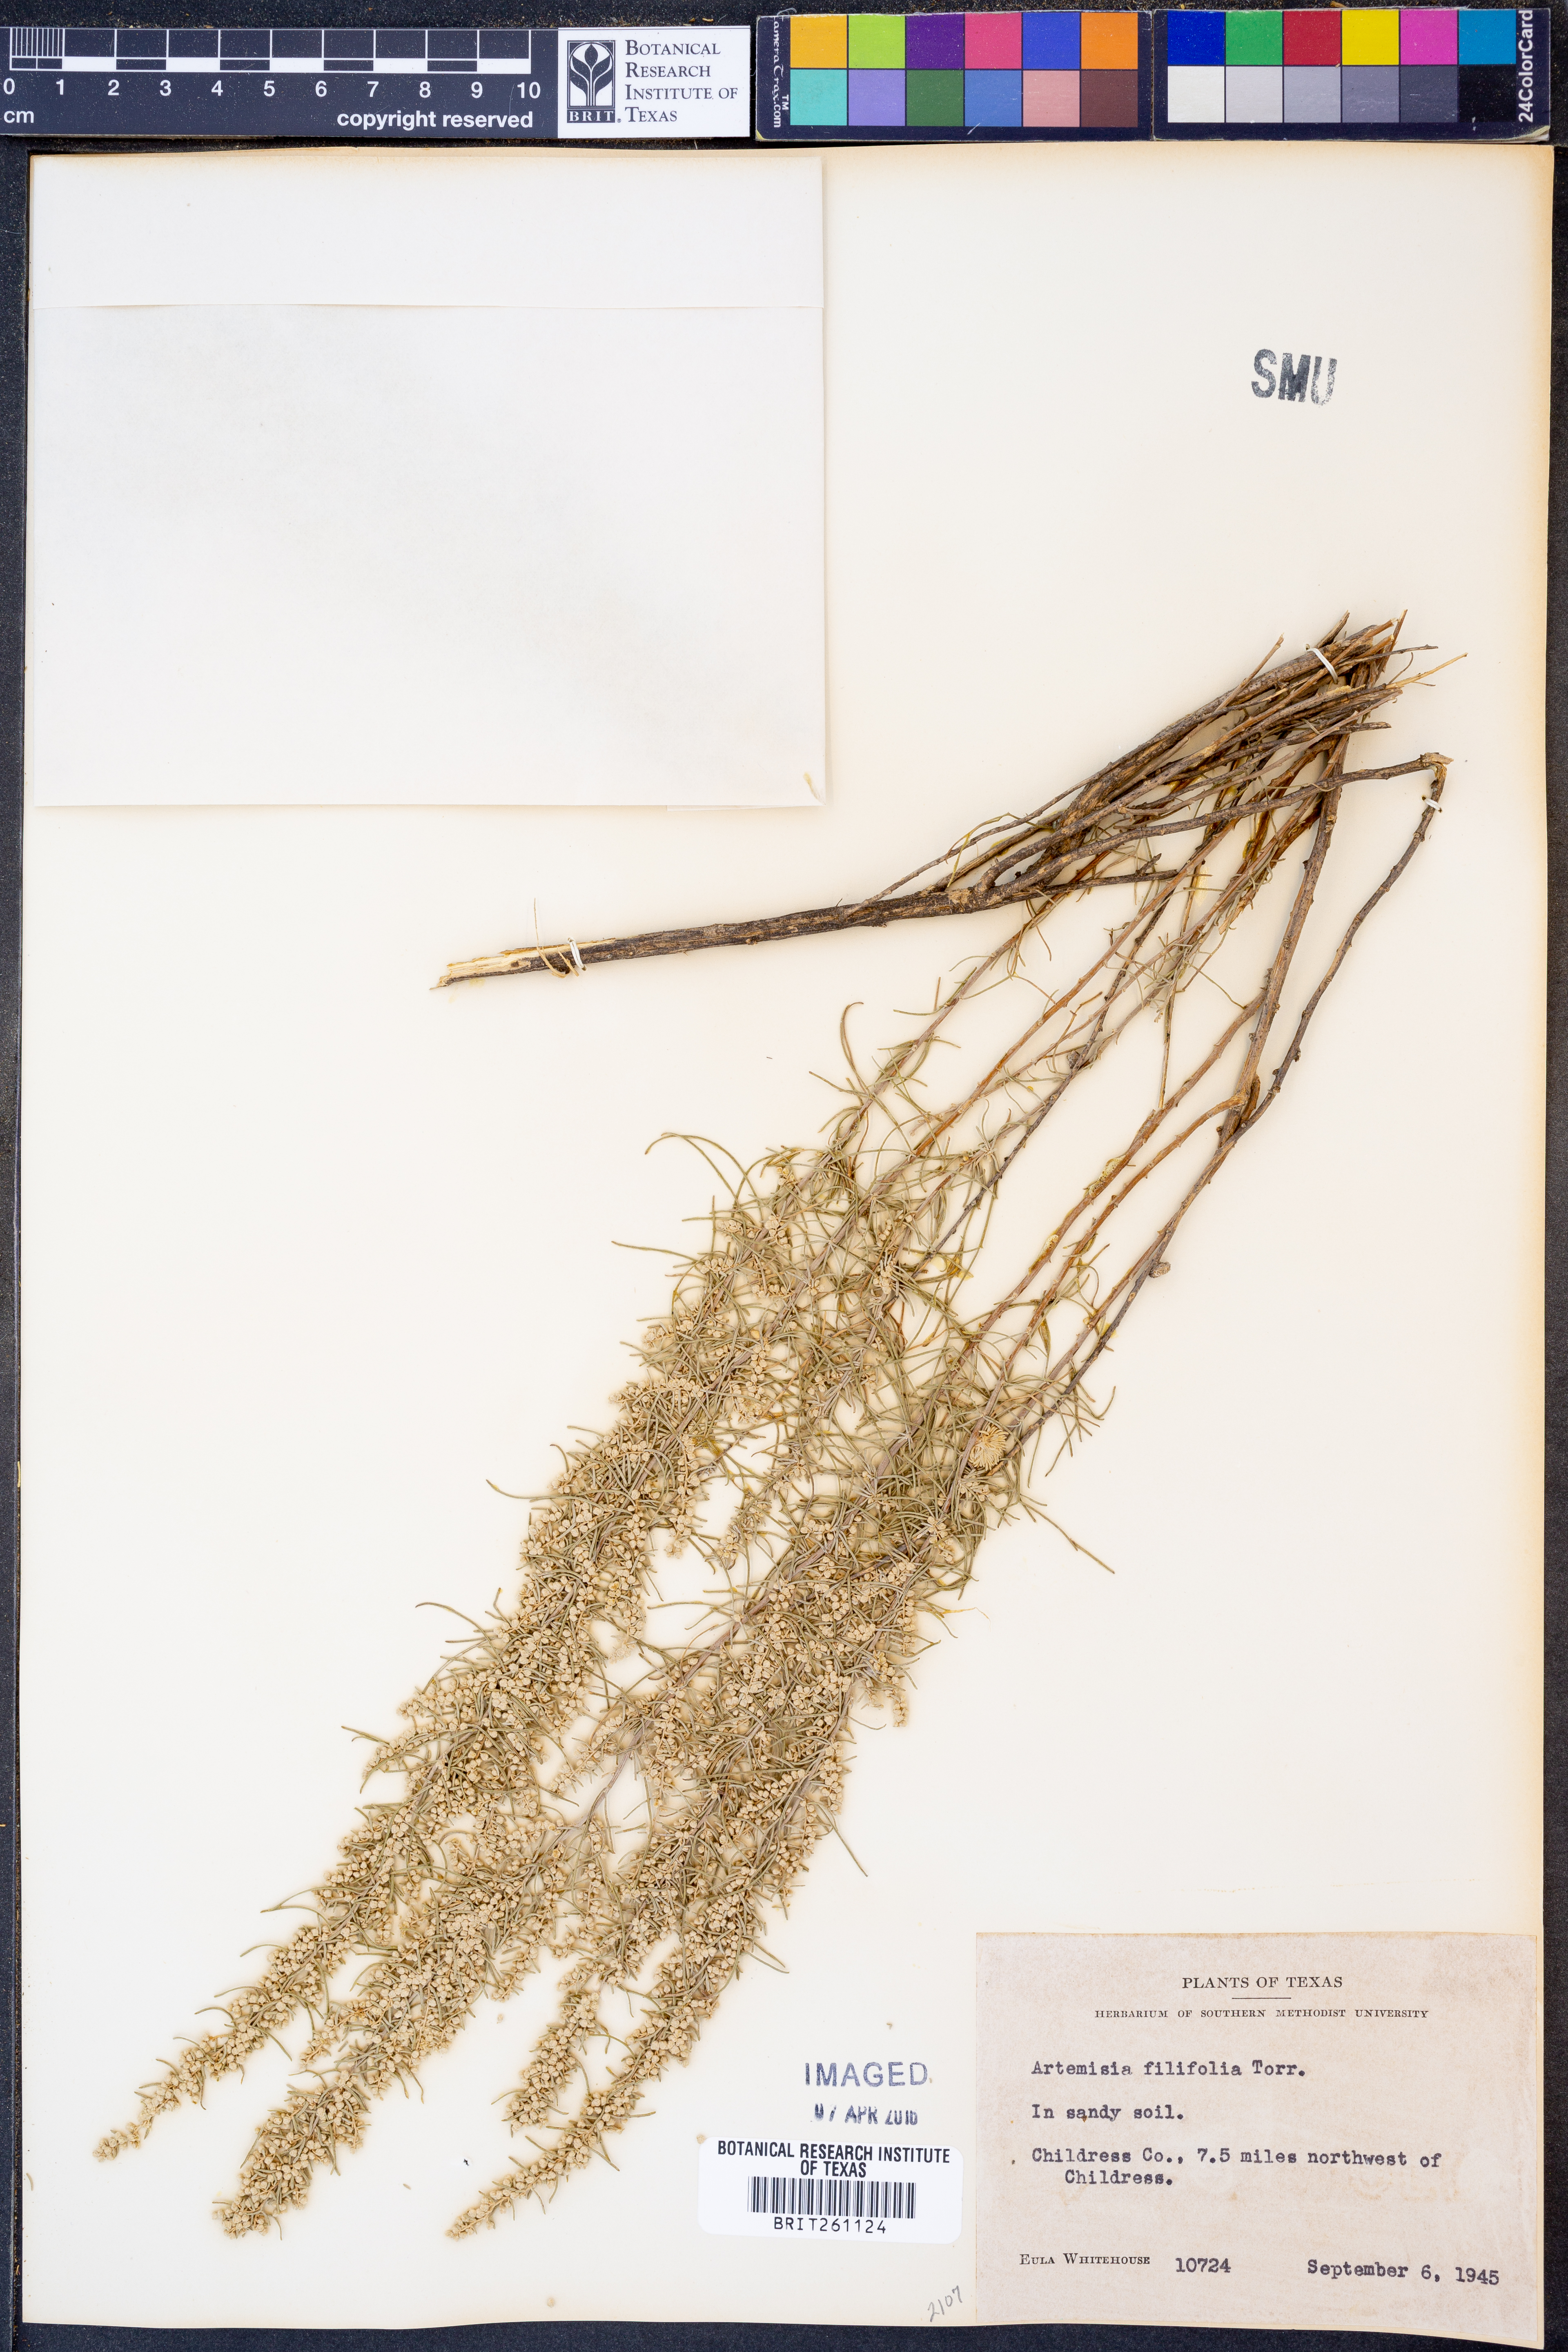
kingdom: Plantae
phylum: Tracheophyta
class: Magnoliopsida
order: Asterales
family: Asteraceae
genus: Artemisia
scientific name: Artemisia filifolia
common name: Sand-sage
